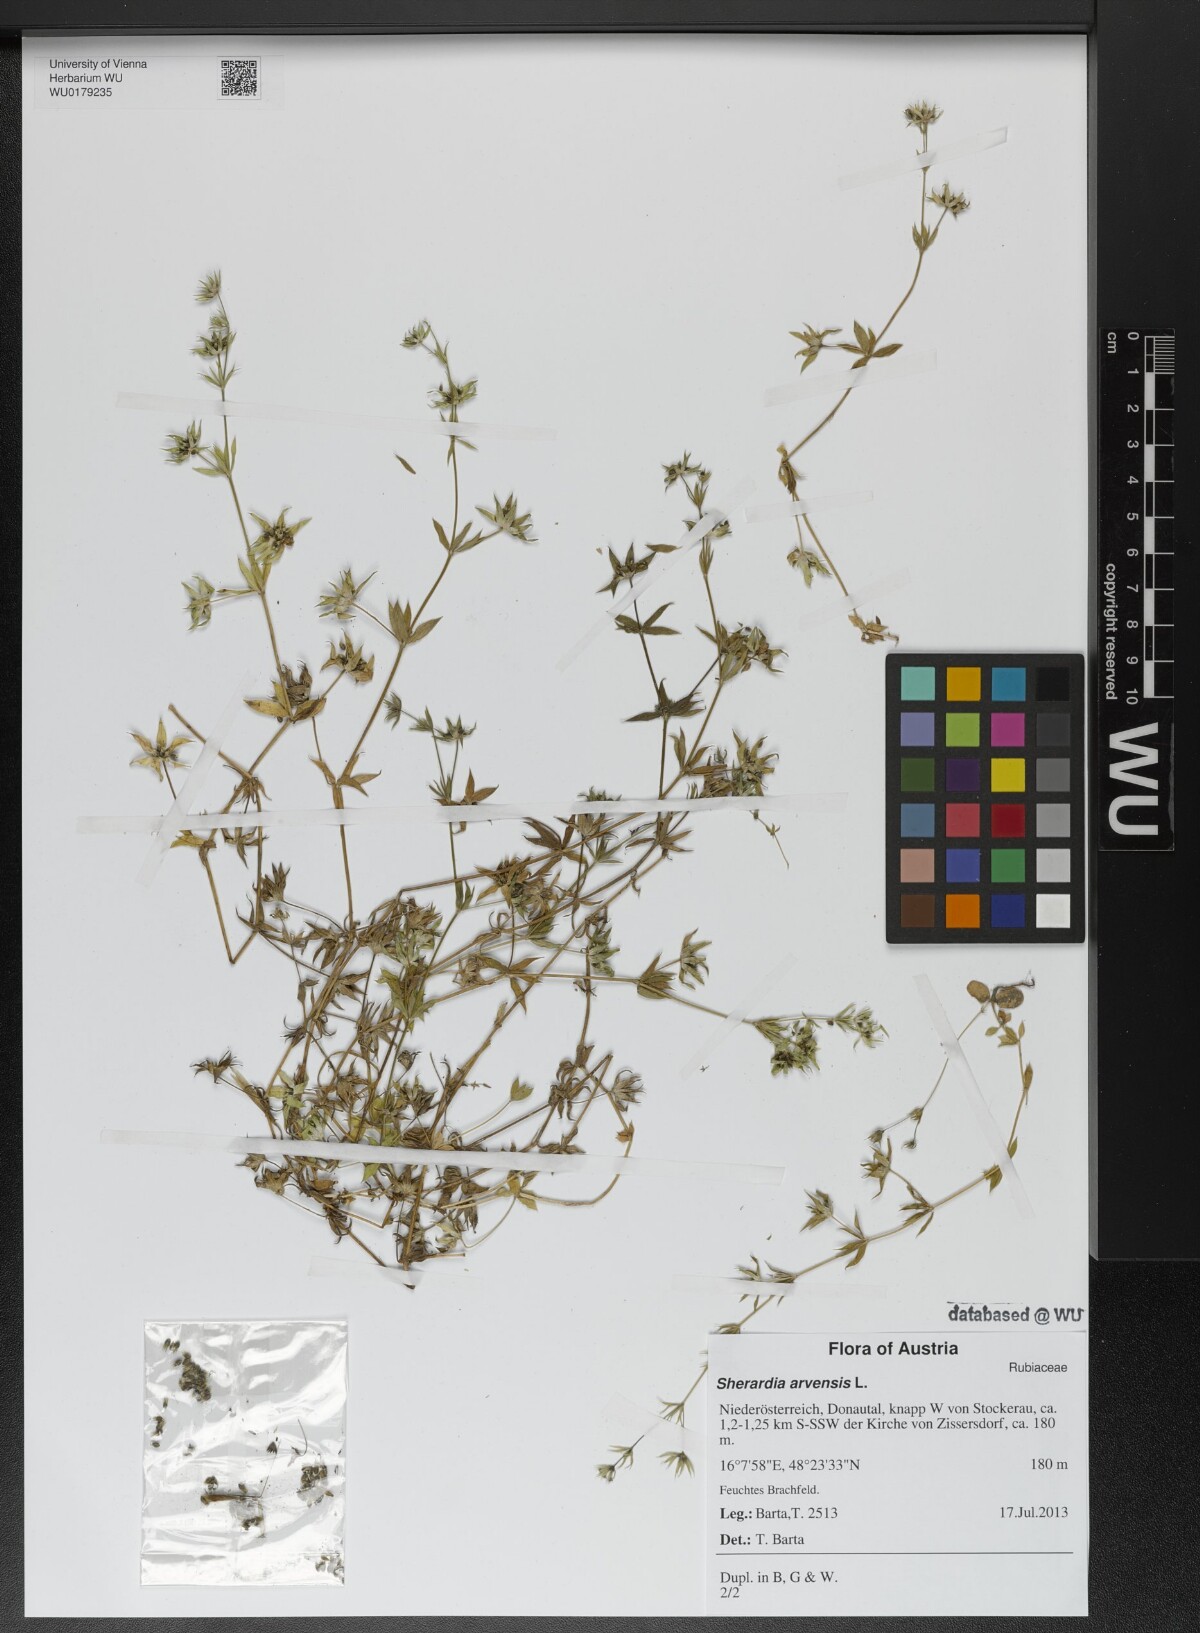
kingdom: Plantae
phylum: Tracheophyta
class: Magnoliopsida
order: Gentianales
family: Rubiaceae
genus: Sherardia
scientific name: Sherardia arvensis
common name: Field madder
